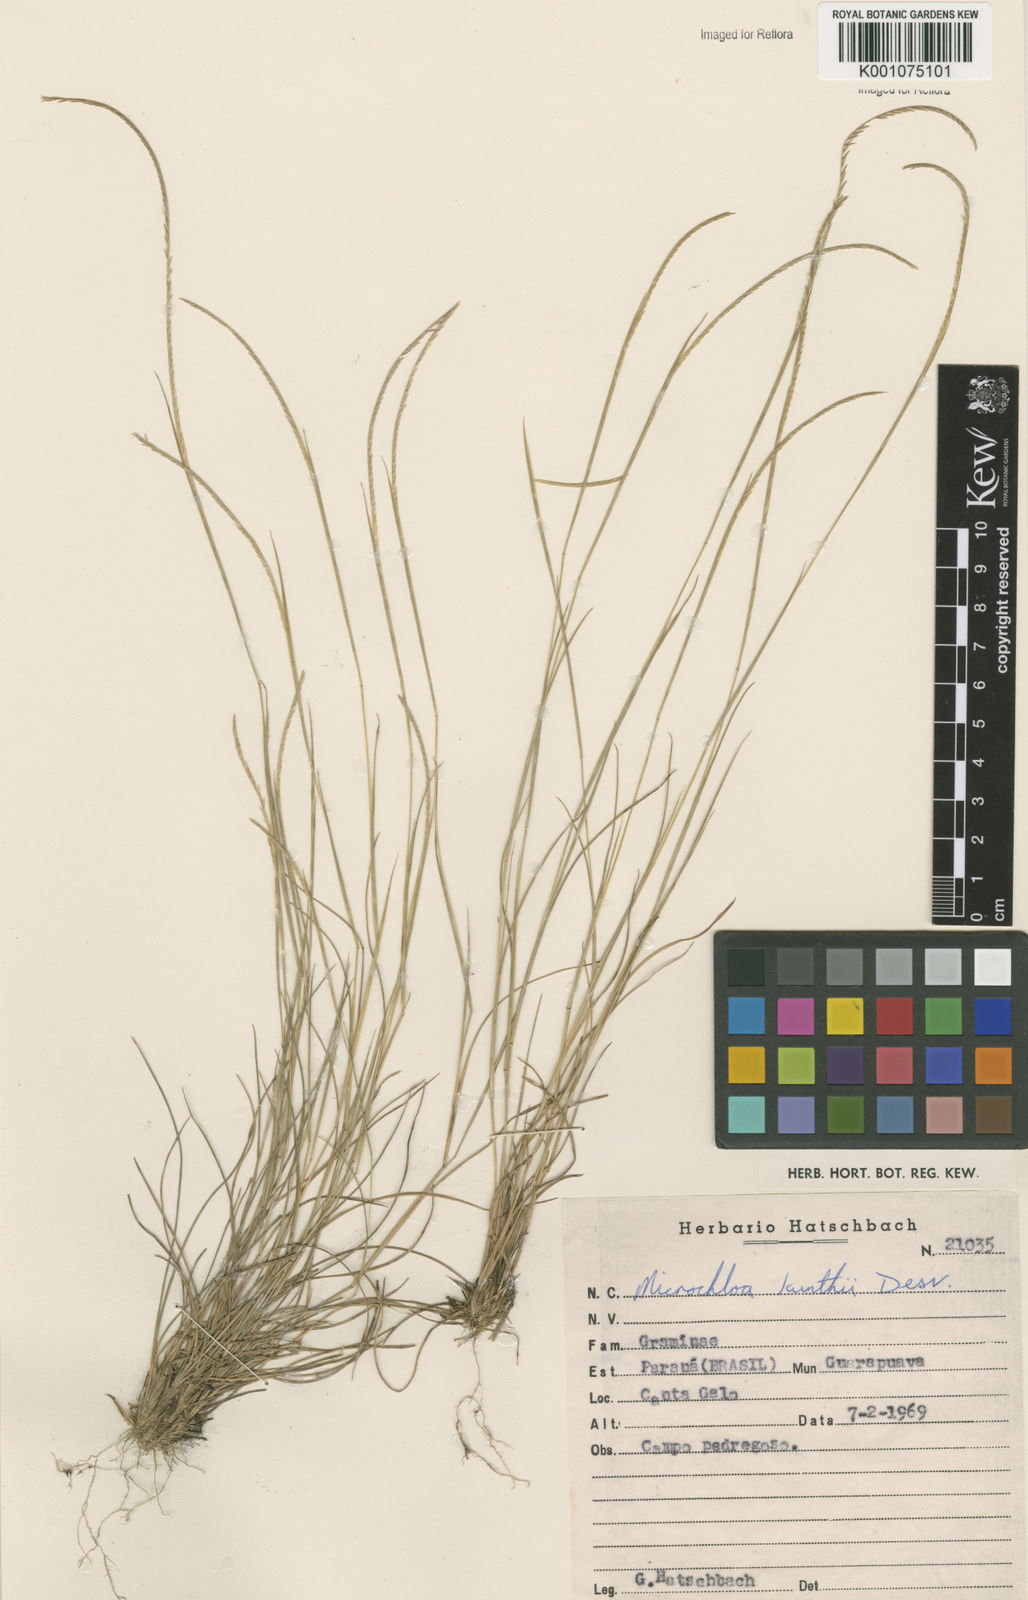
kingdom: Plantae
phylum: Tracheophyta
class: Liliopsida
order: Poales
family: Poaceae
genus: Microchloa
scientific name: Microchloa kunthii
